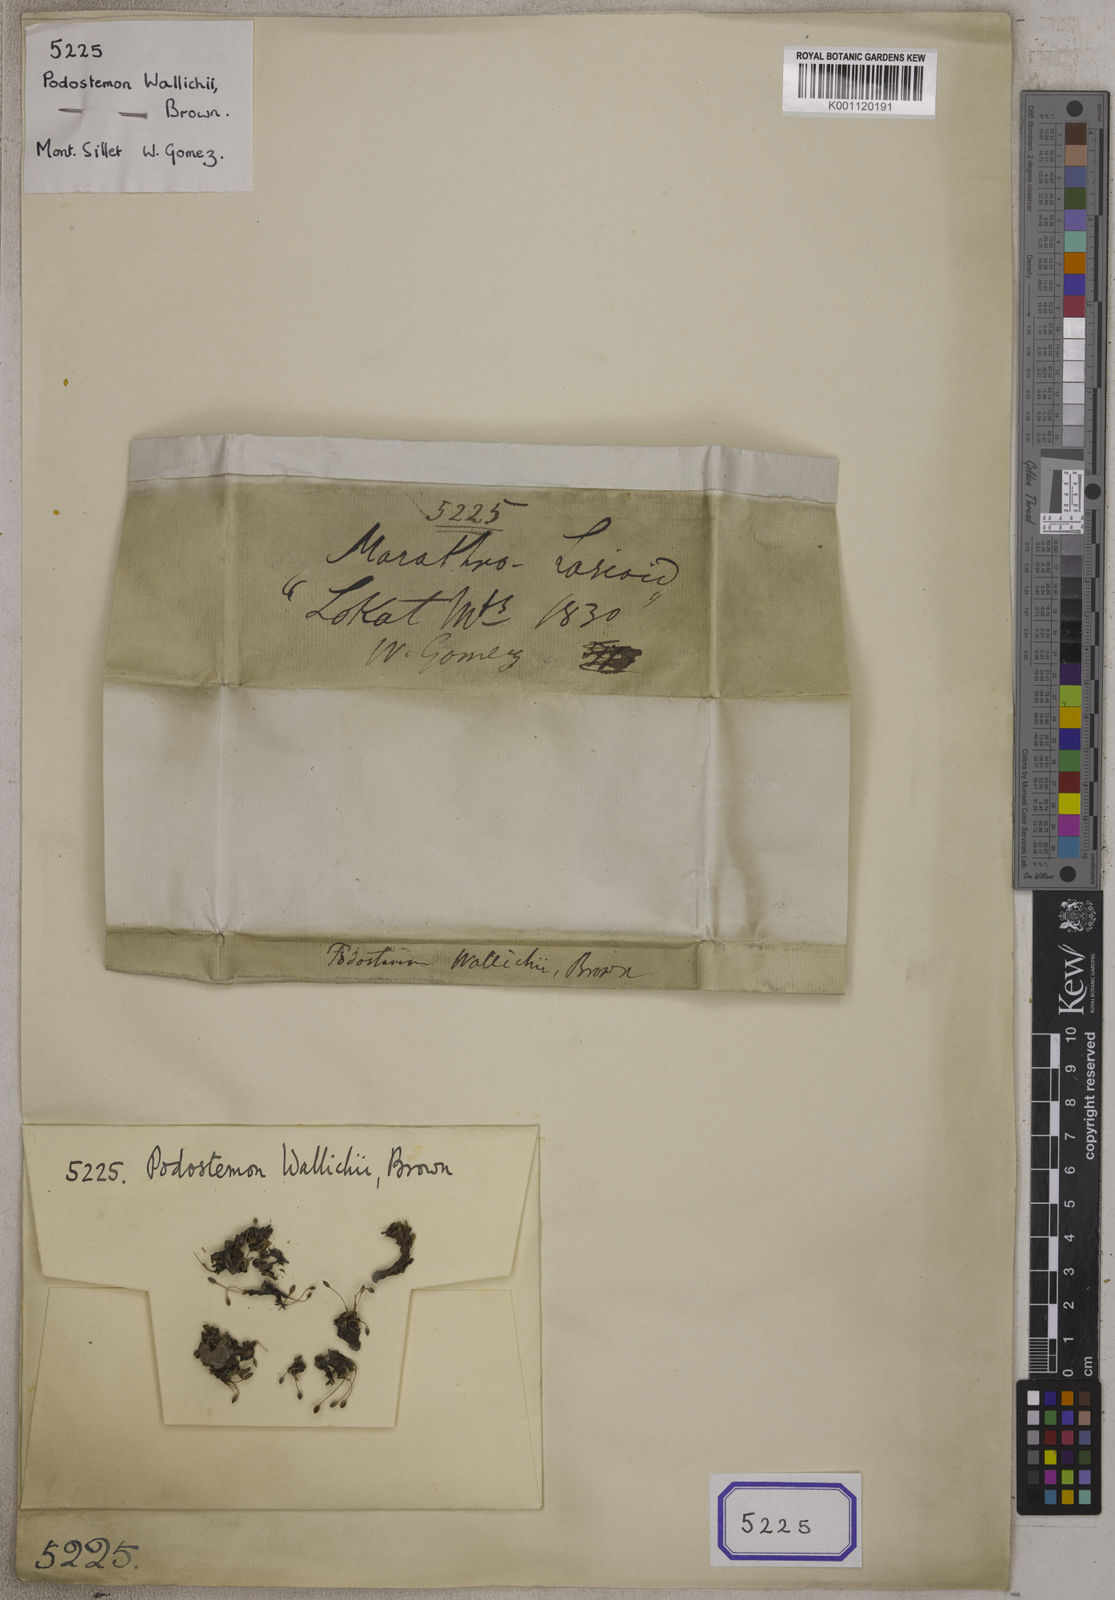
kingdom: Plantae
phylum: Tracheophyta
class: Magnoliopsida
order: Malpighiales
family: Podostemaceae
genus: Podostemum
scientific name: Podostemum
